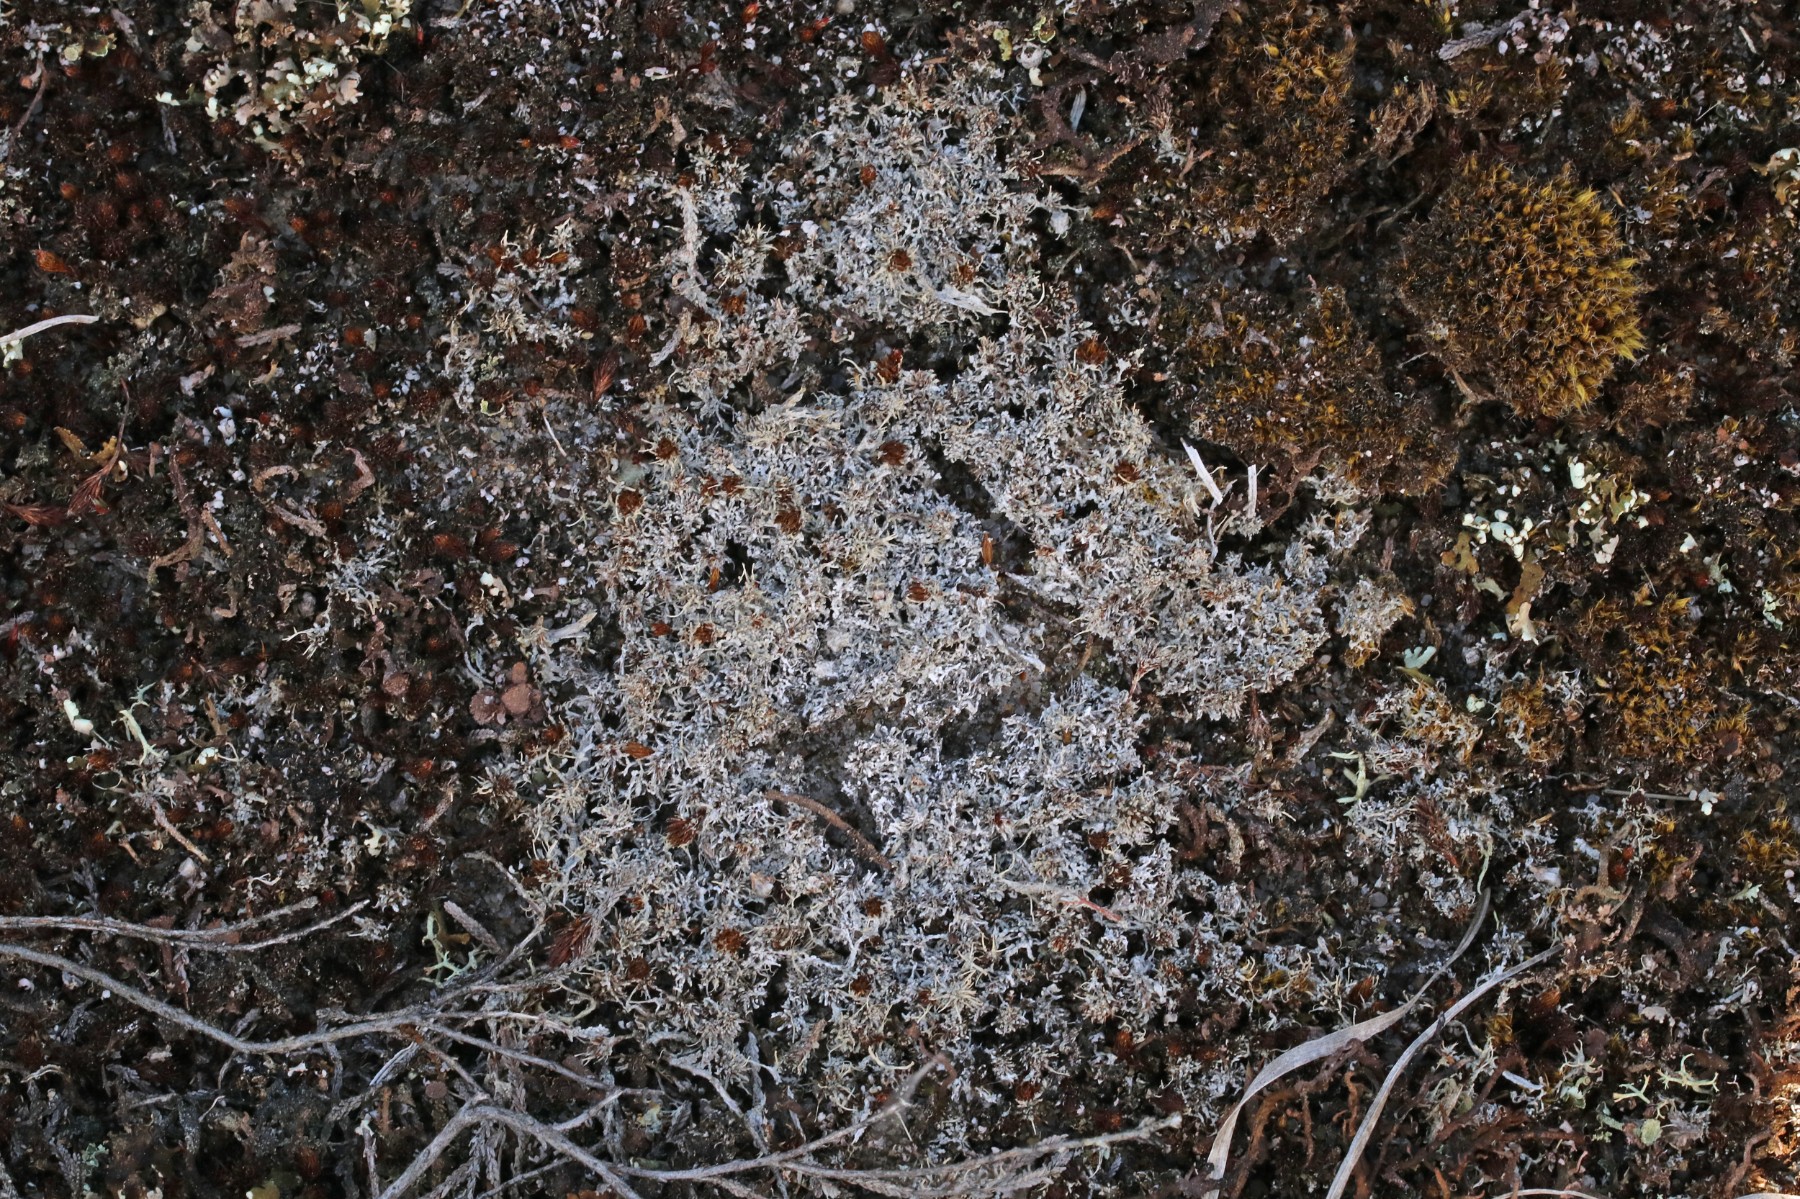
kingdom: Fungi
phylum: Ascomycota
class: Lecanoromycetes
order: Pertusariales
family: Ochrolechiaceae
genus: Ochrolechia
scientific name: Ochrolechia frigida
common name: fjeld-blegskivelav
